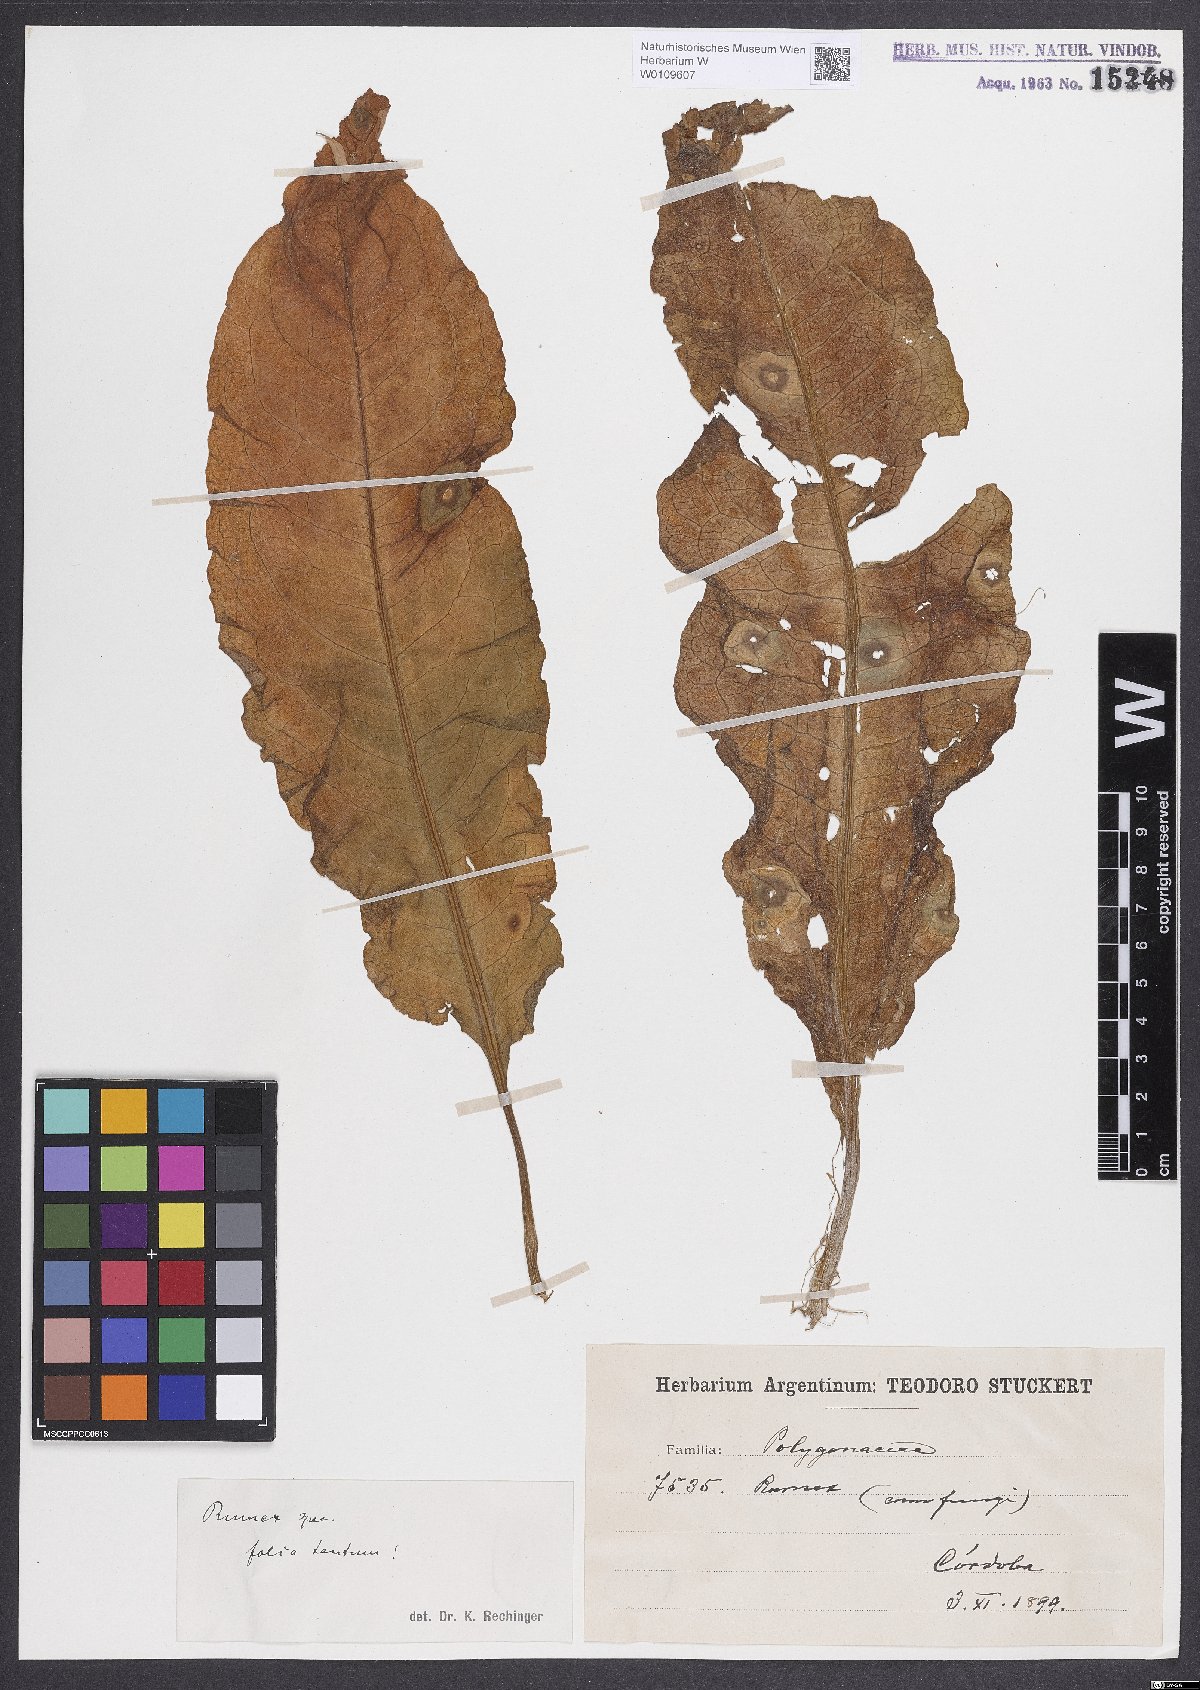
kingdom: Plantae
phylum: Tracheophyta
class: Magnoliopsida
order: Caryophyllales
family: Polygonaceae
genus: Rumex
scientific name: Rumex crispus
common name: Curled dock
